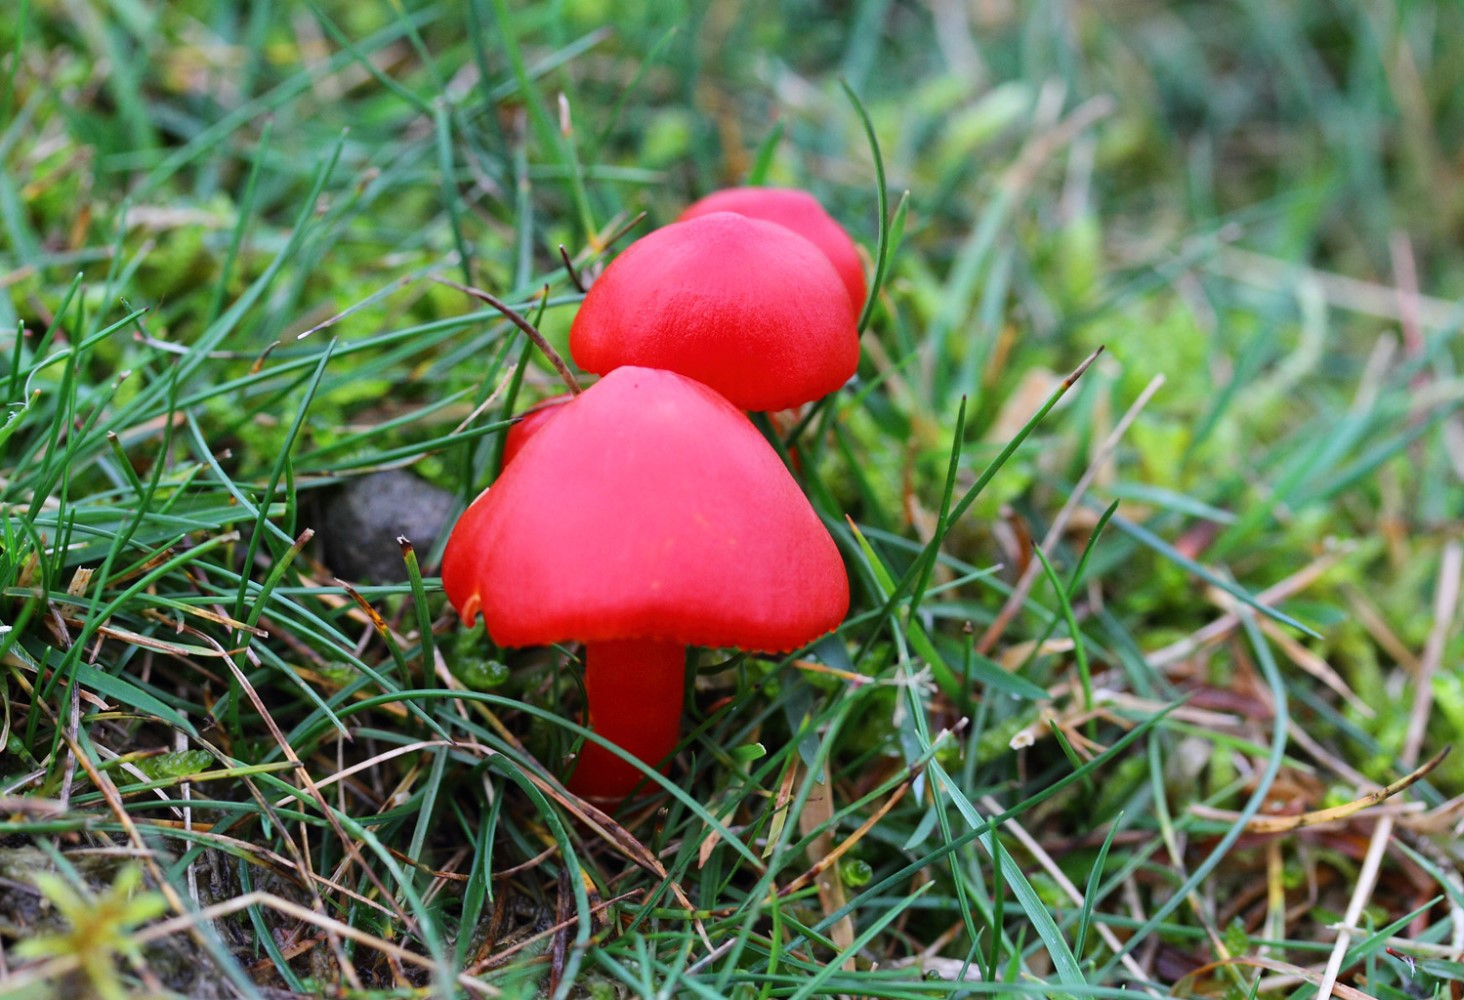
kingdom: Fungi
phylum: Basidiomycota
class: Agaricomycetes
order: Agaricales
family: Hygrophoraceae
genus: Hygrocybe
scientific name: Hygrocybe coccinea
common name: cinnober-vokshat
